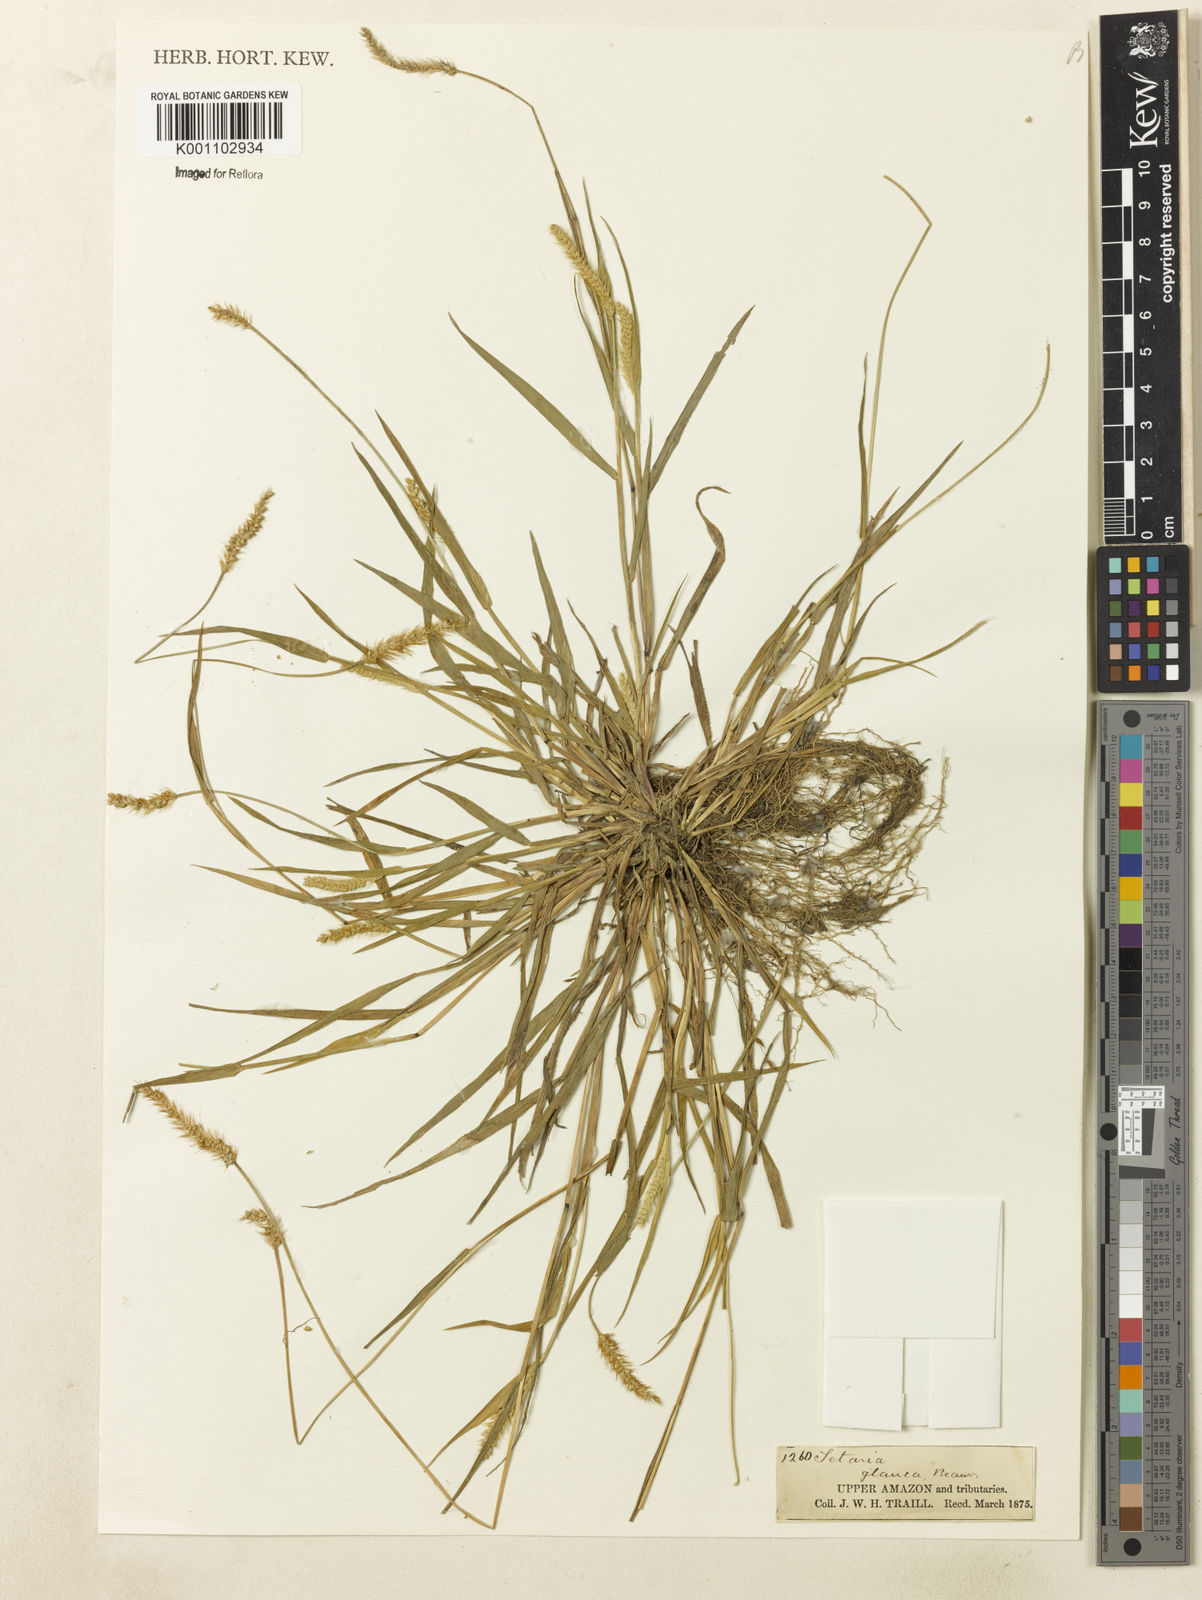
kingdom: Plantae
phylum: Tracheophyta
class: Liliopsida
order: Poales
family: Poaceae
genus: Setaria
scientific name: Setaria pumila
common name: Yellow bristle-grass
